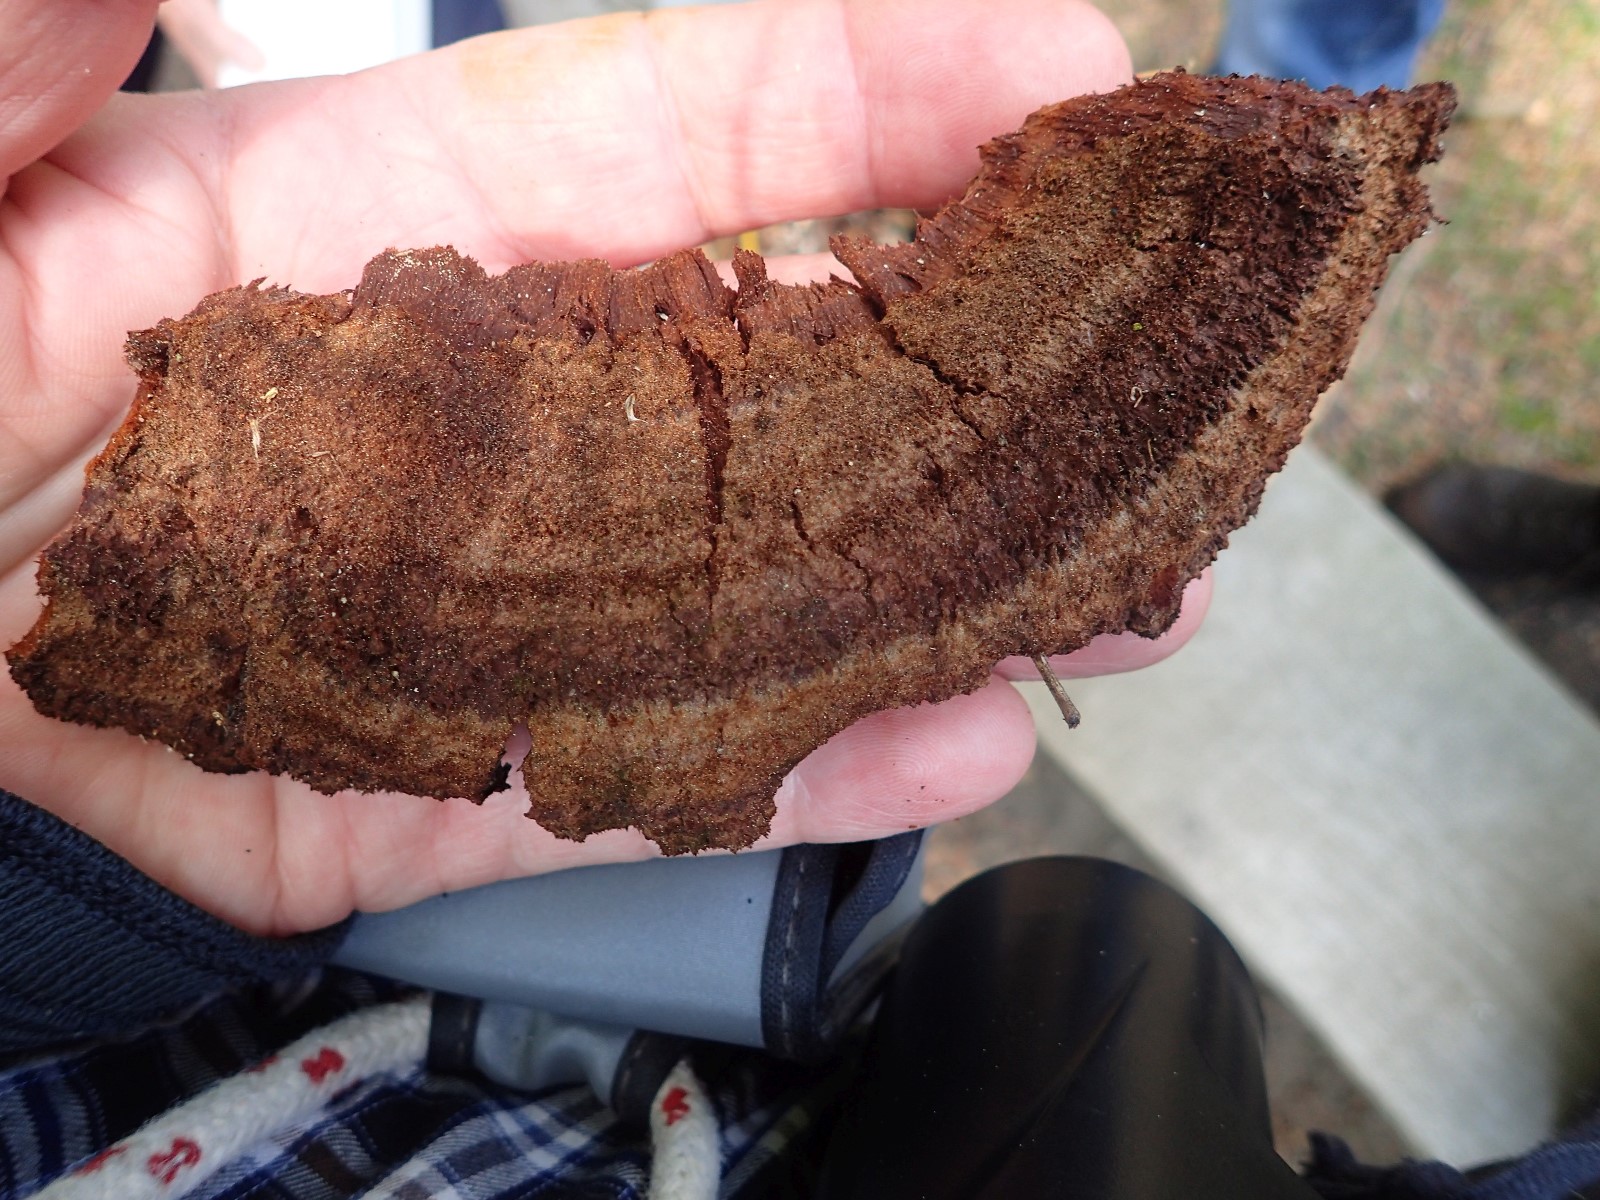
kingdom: Fungi
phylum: Basidiomycota
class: Agaricomycetes
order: Polyporales
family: Laetiporaceae
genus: Phaeolus
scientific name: Phaeolus schweinitzii
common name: brunporesvamp
